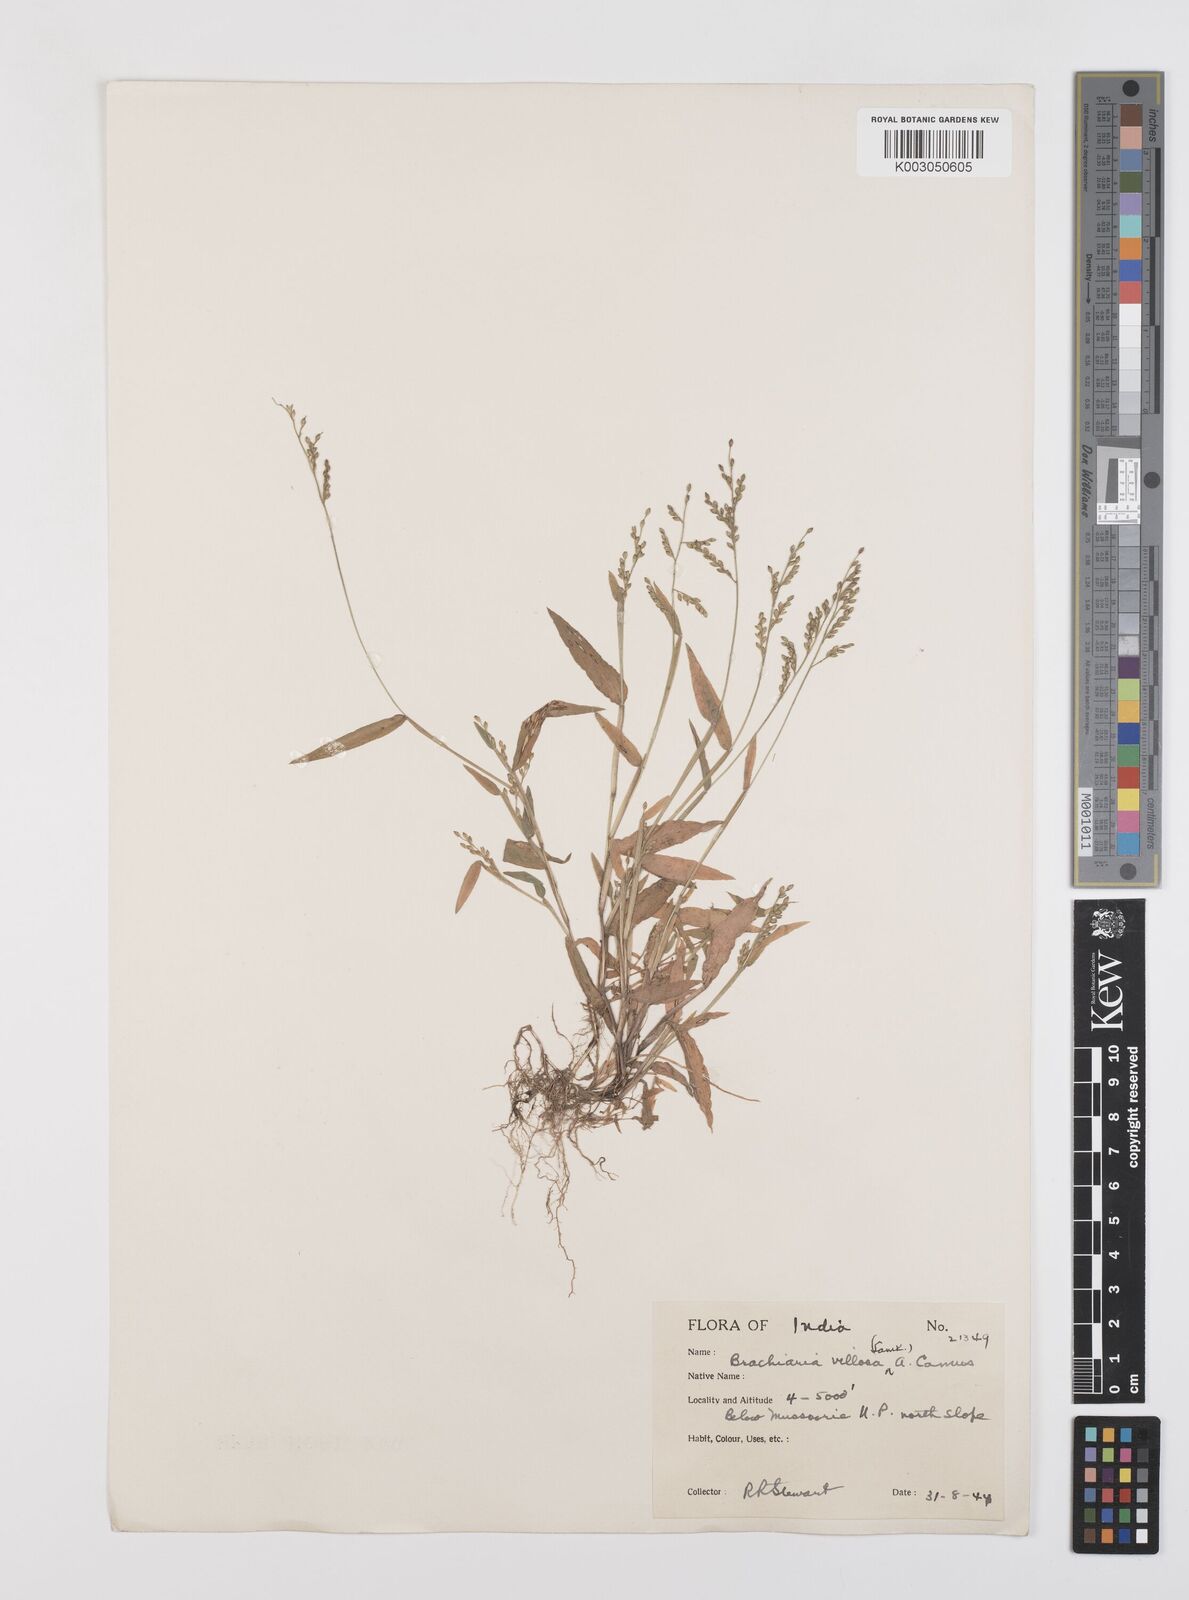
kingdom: Plantae
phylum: Tracheophyta
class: Liliopsida
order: Poales
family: Poaceae
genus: Urochloa
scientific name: Urochloa villosa
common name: Hairy signalgrass
